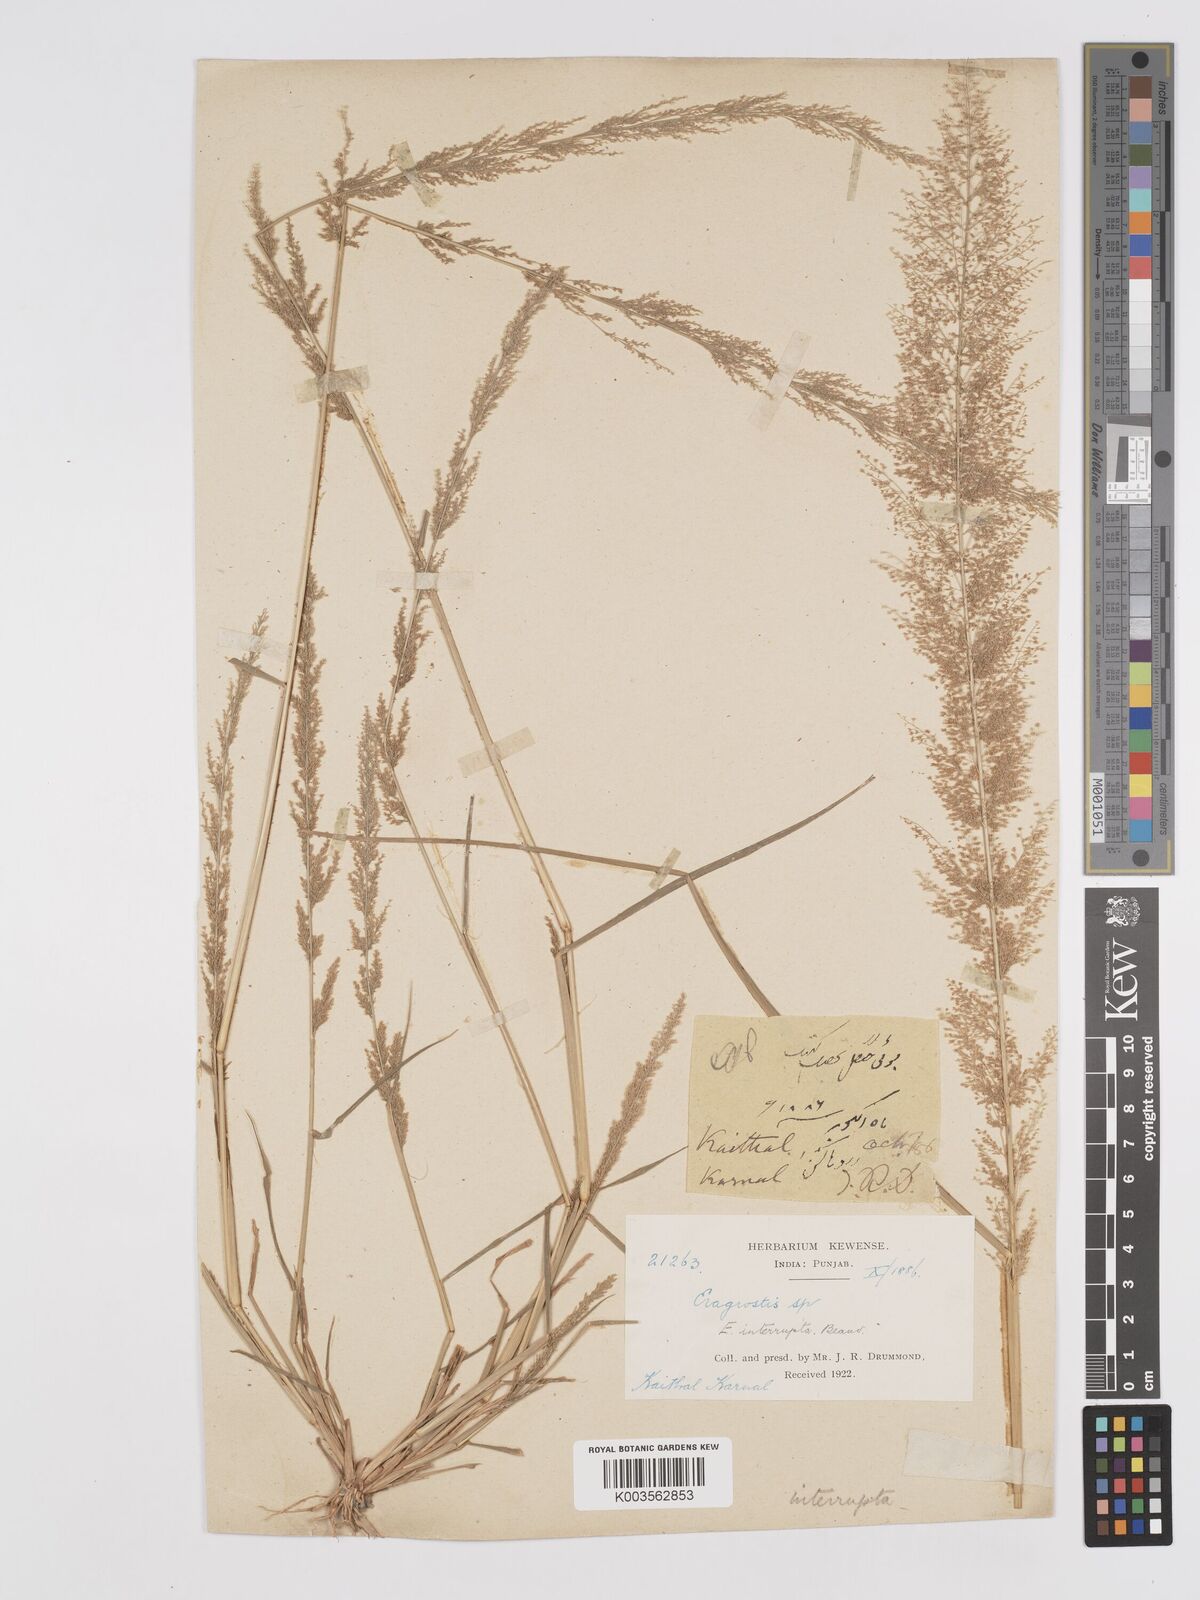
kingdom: Plantae
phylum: Tracheophyta
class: Liliopsida
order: Poales
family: Poaceae
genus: Eragrostis
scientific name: Eragrostis japonica
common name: Pond lovegrass
